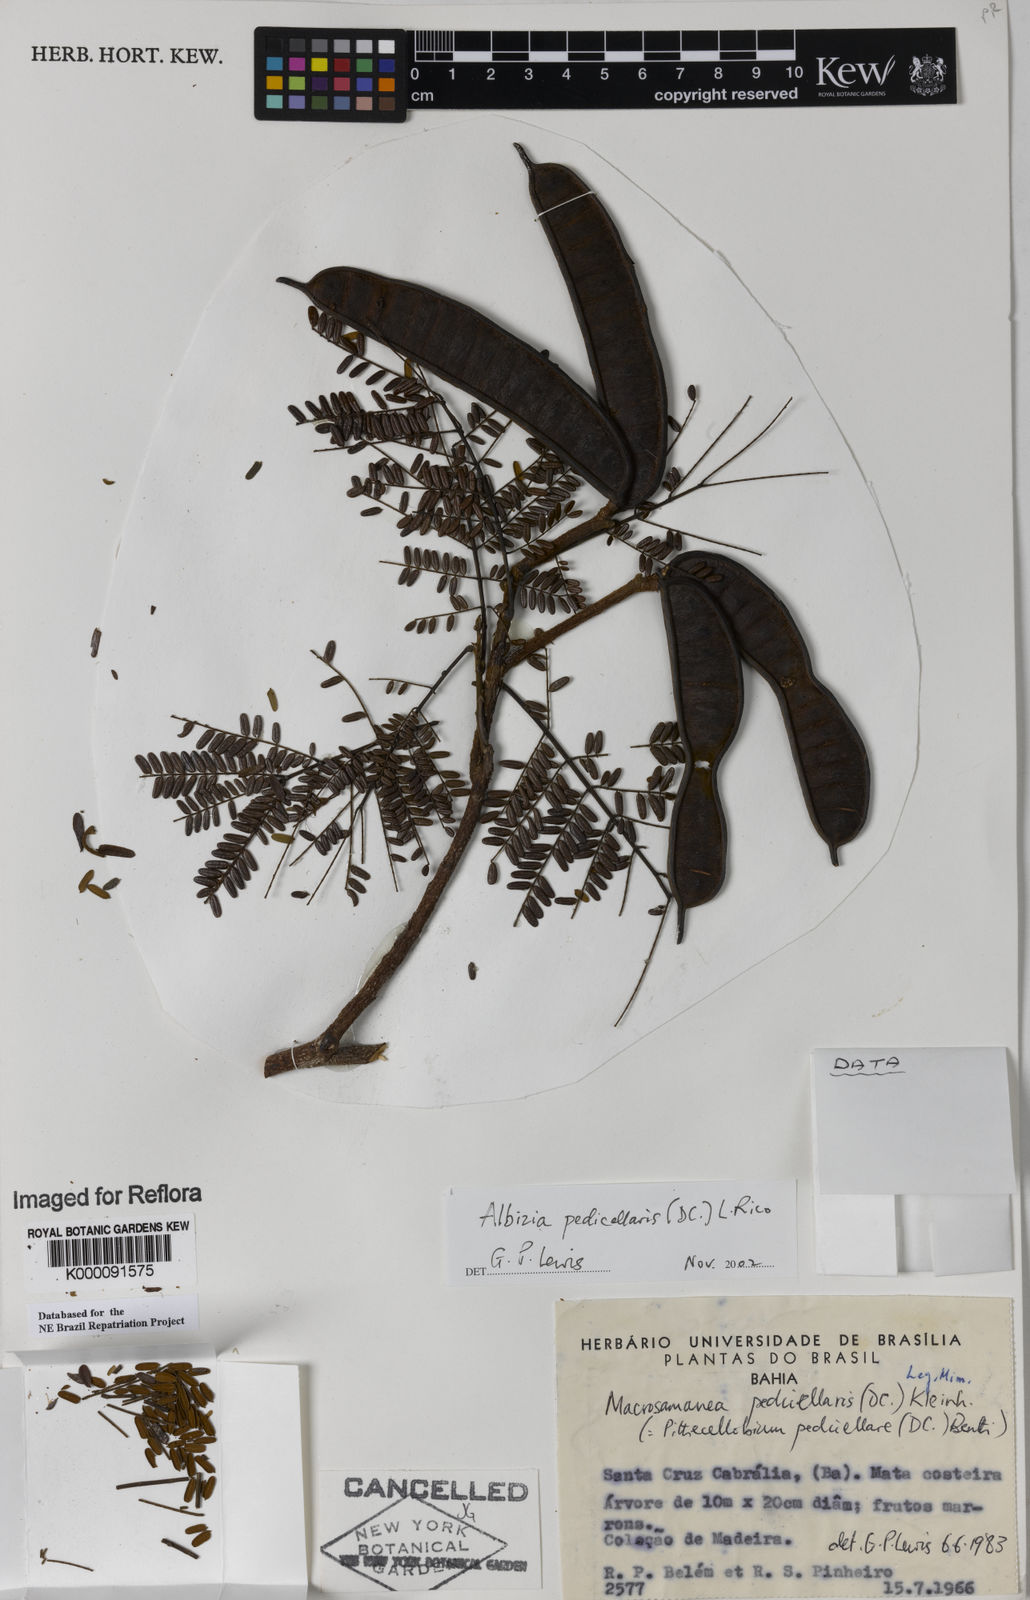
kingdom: Plantae
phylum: Tracheophyta
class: Magnoliopsida
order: Fabales
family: Fabaceae
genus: Balizia
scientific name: Balizia pedicellaris
